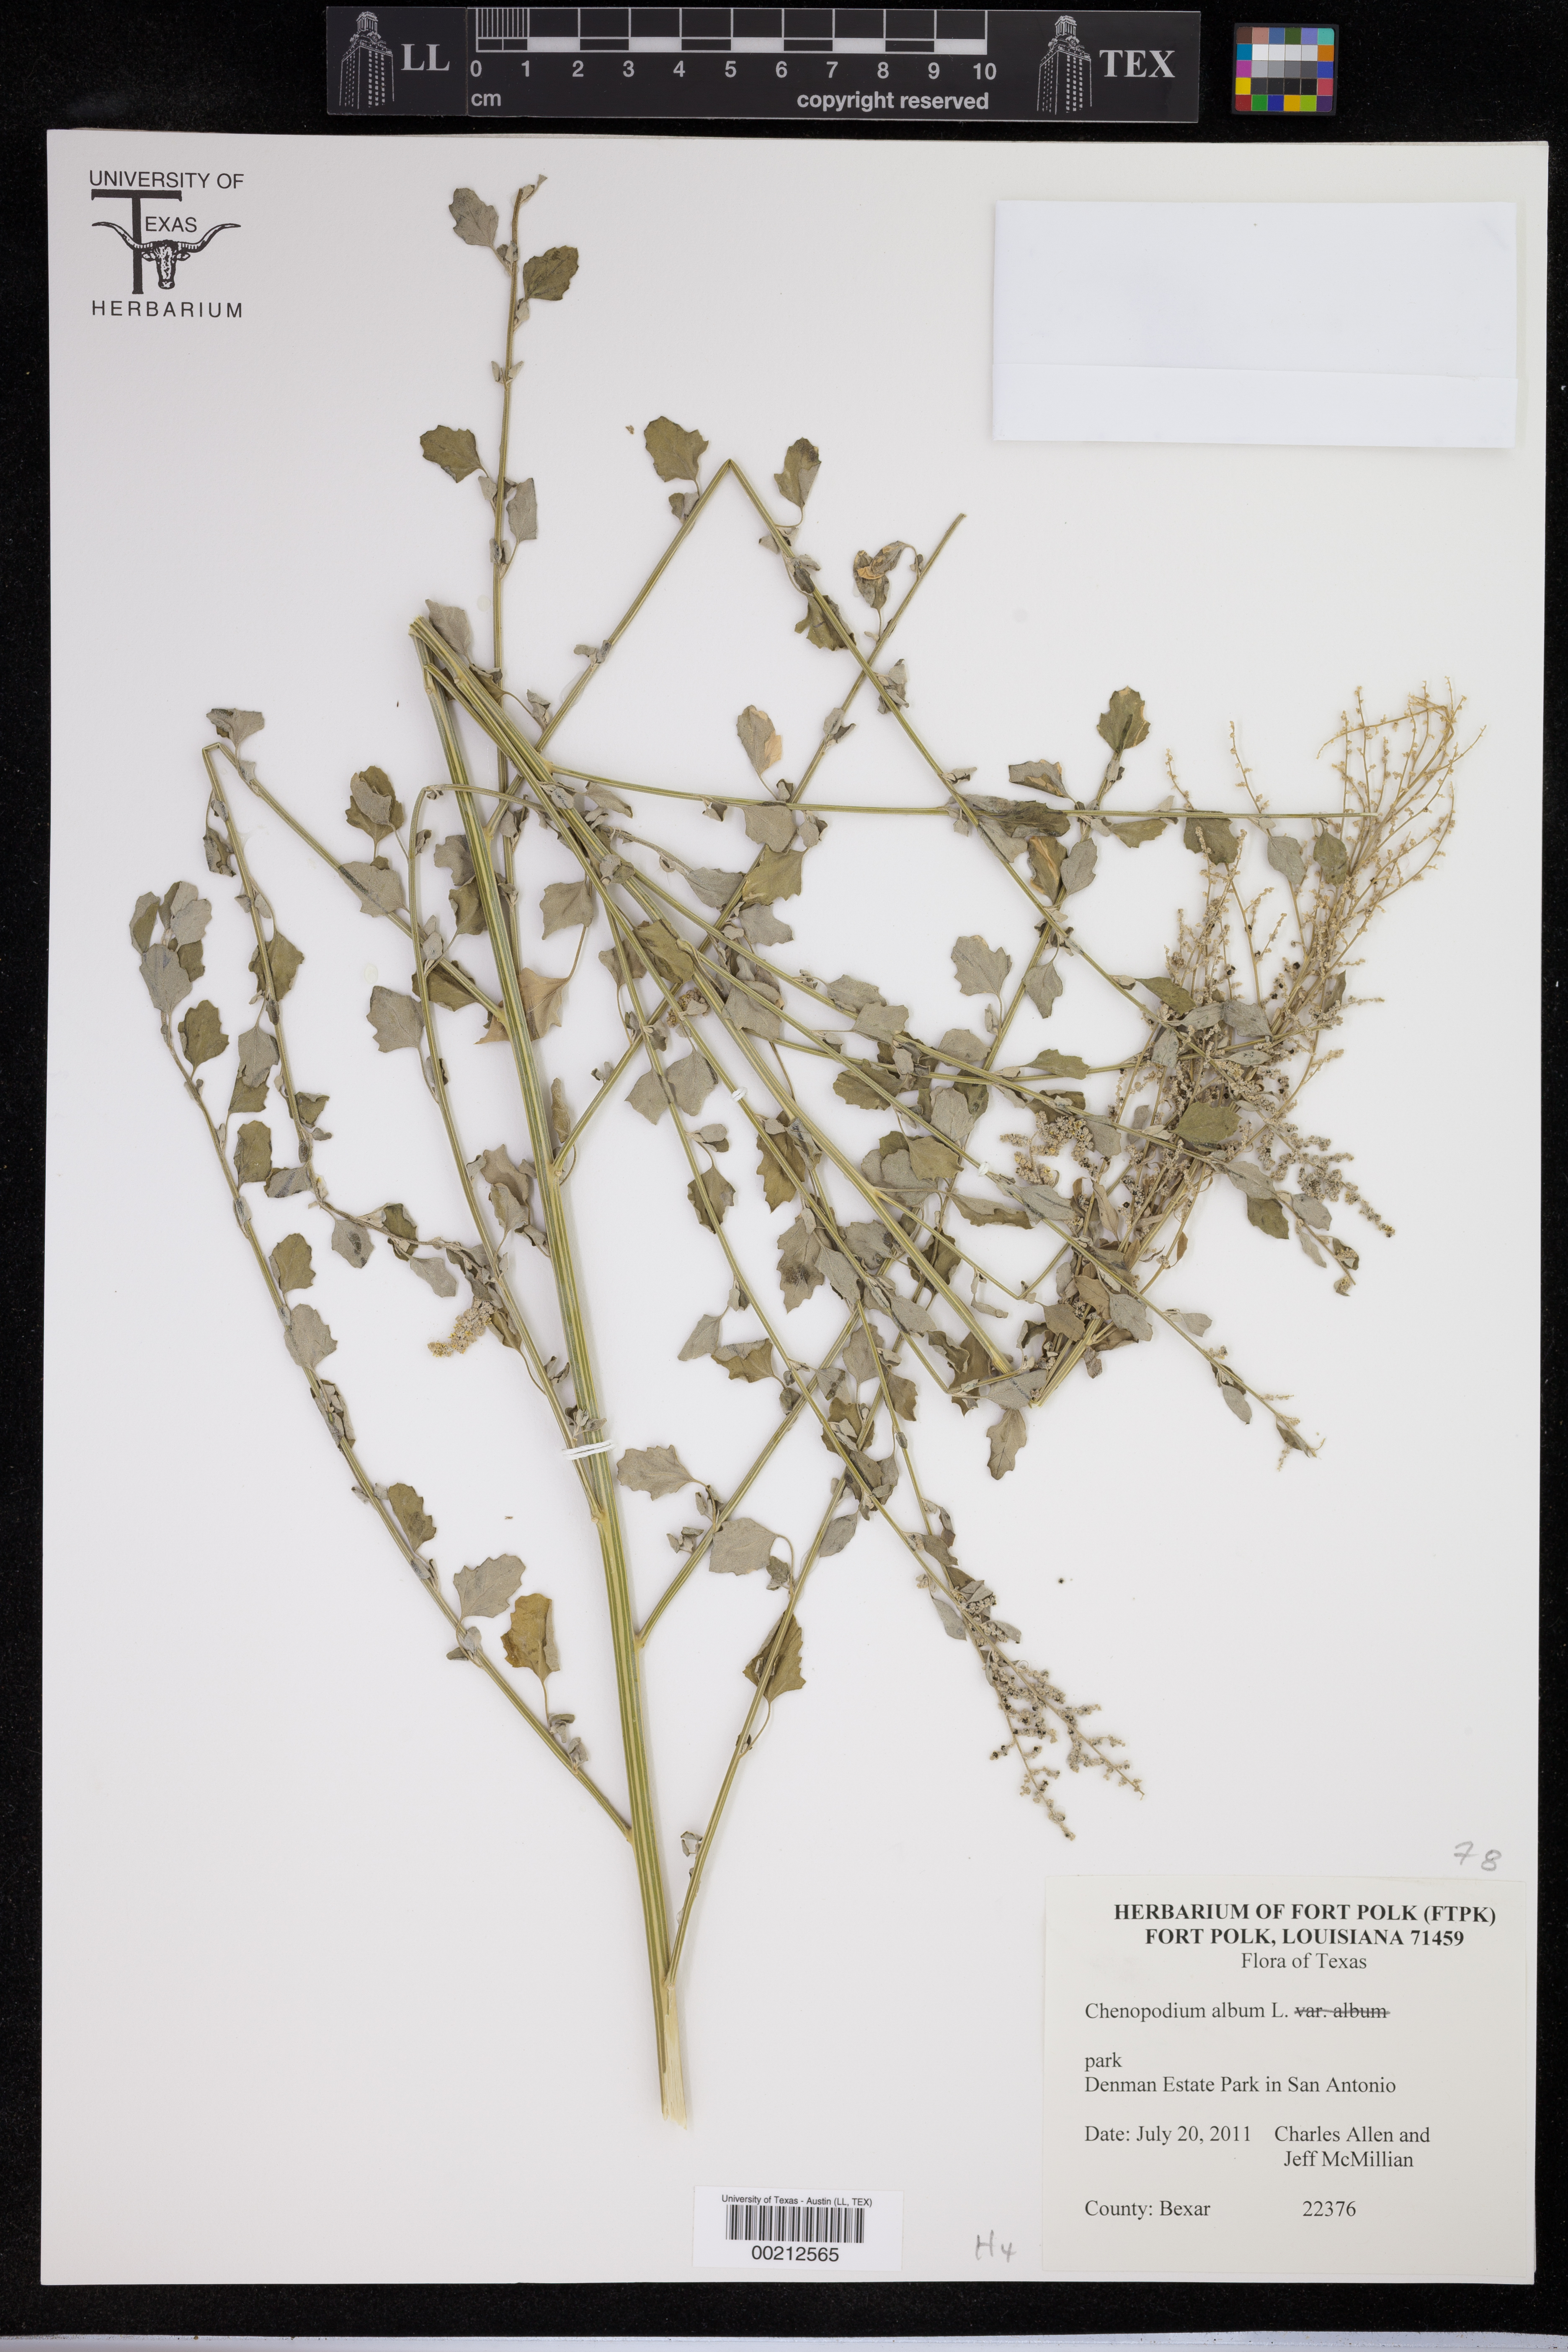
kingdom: Plantae
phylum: Tracheophyta
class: Liliopsida
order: Poales
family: Poaceae
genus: Chloris
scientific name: Chloris
